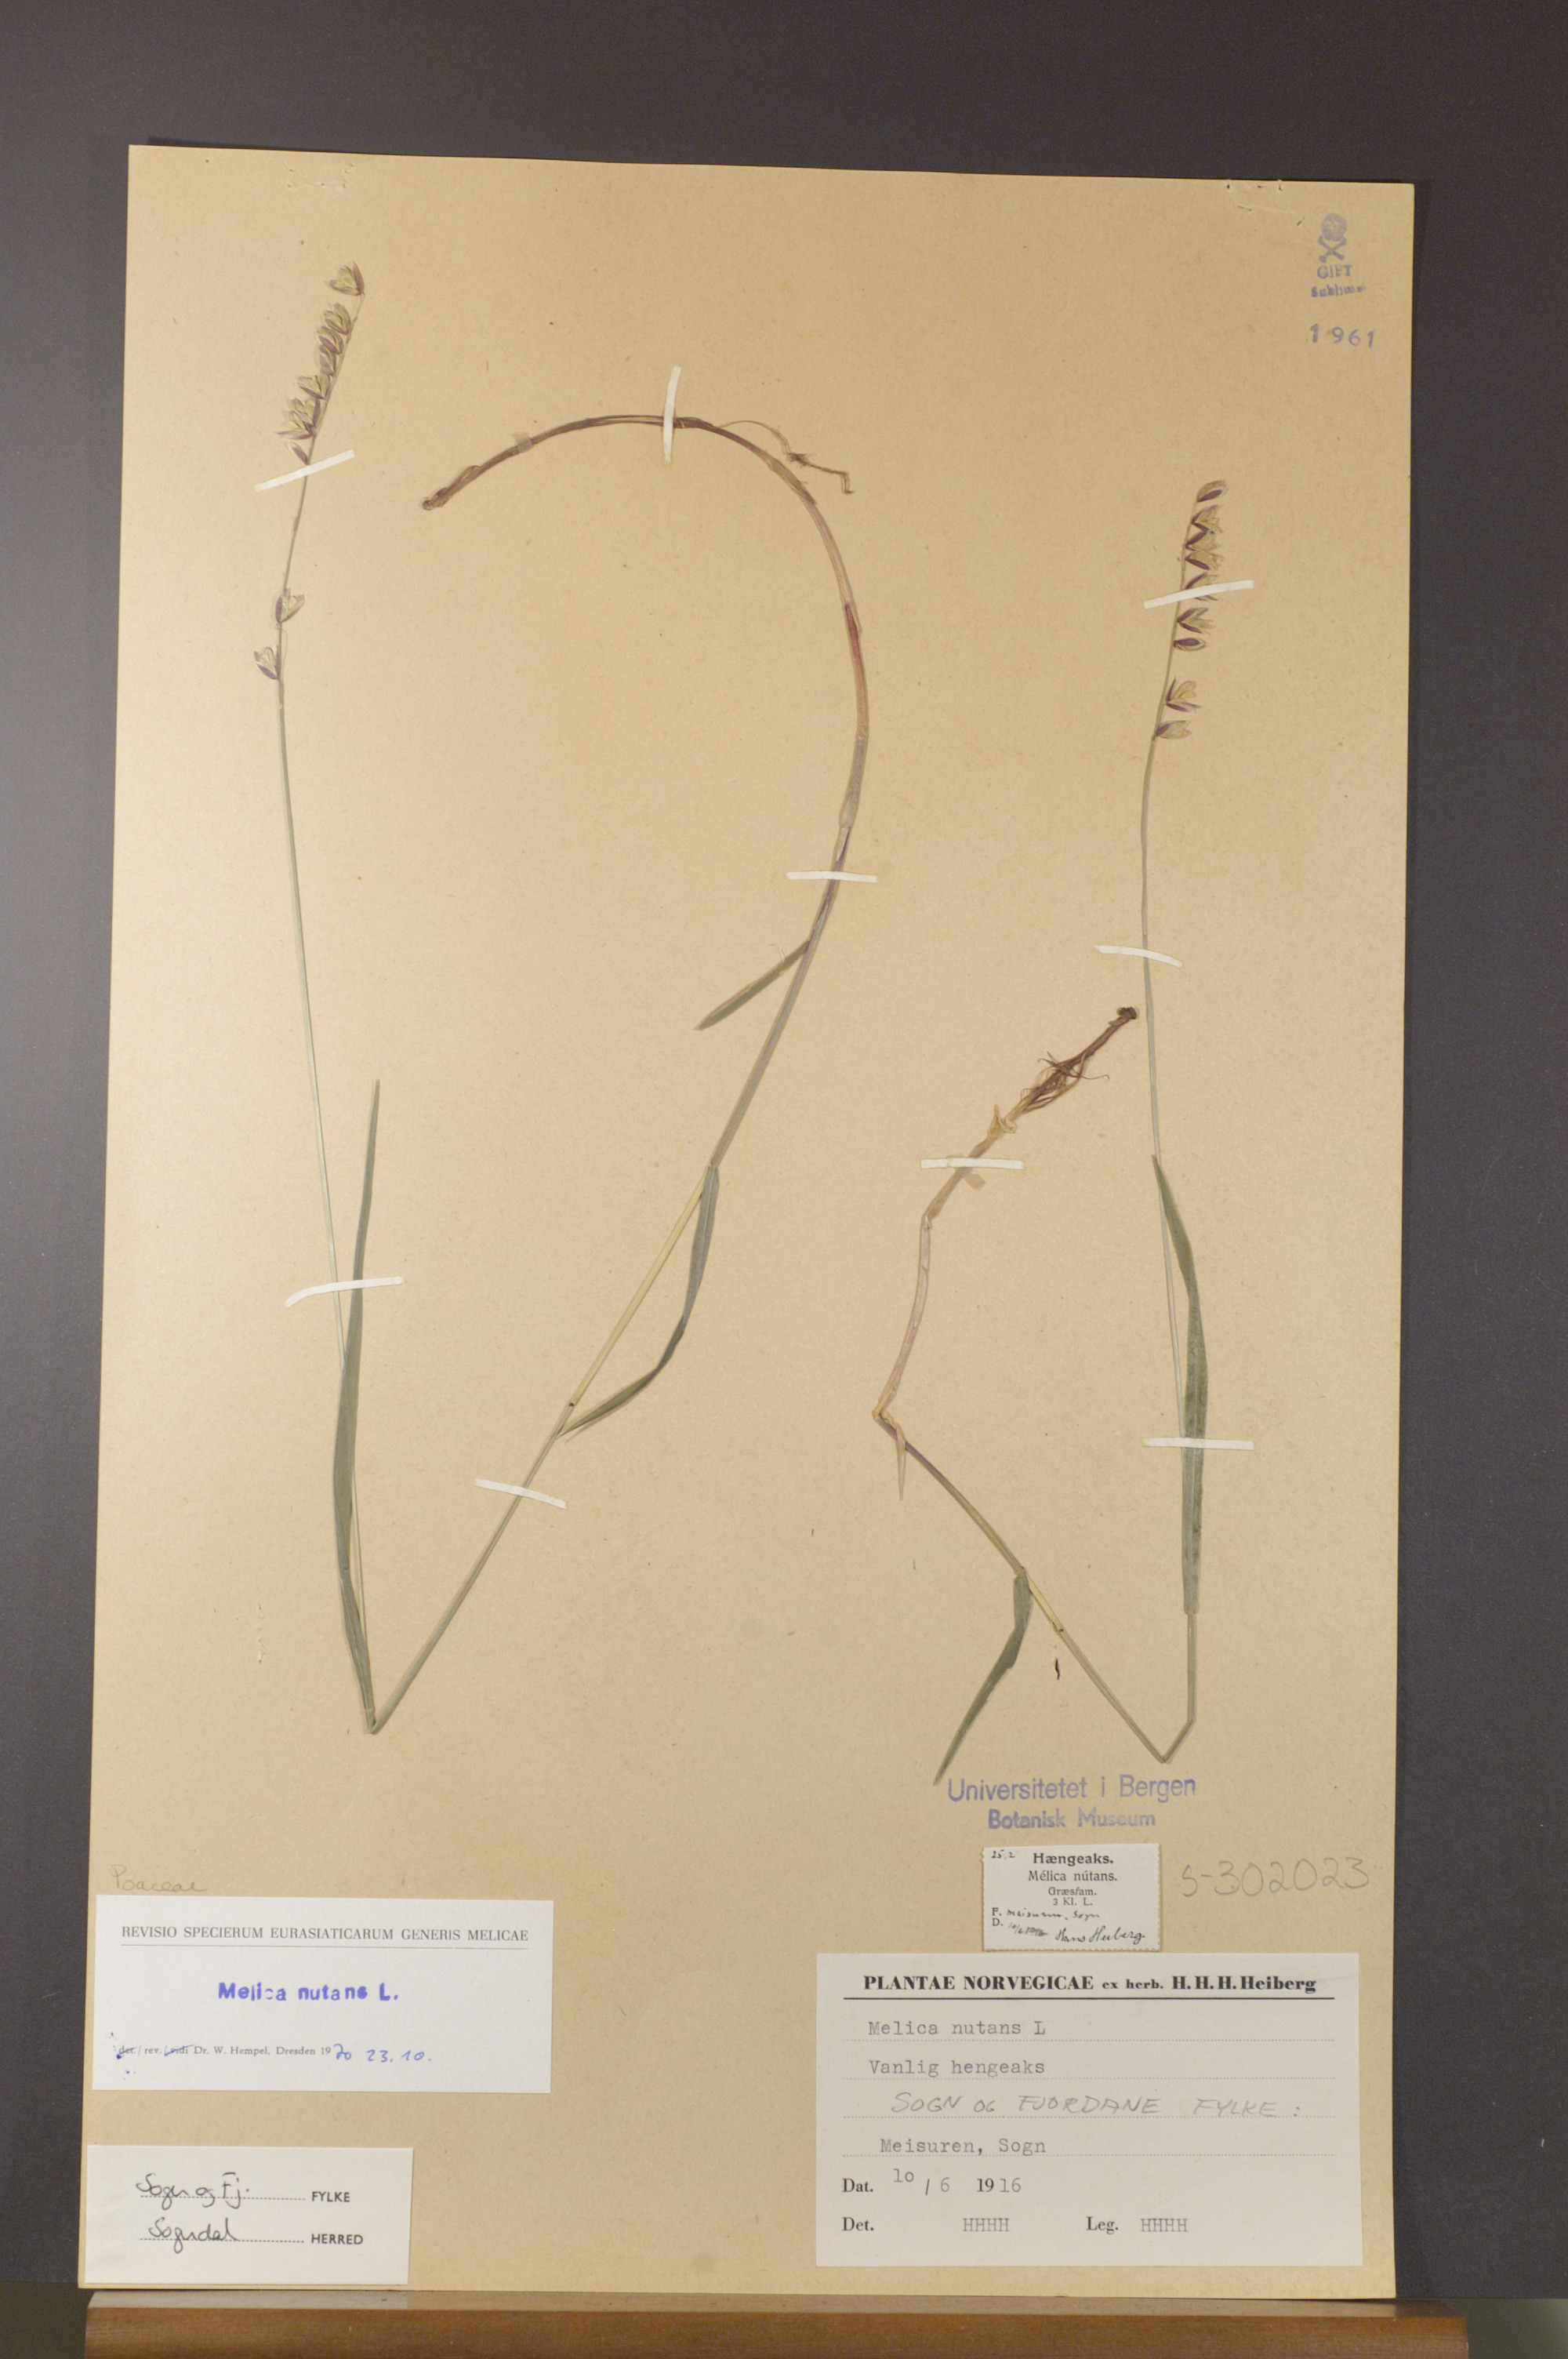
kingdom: Plantae
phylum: Tracheophyta
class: Liliopsida
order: Poales
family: Poaceae
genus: Melica
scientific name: Melica nutans
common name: Mountain melick
